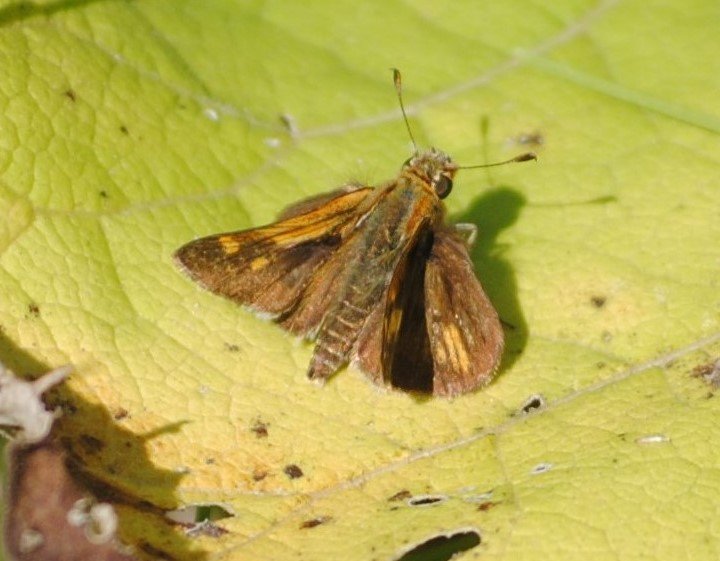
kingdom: Animalia
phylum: Arthropoda
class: Insecta
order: Lepidoptera
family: Hesperiidae
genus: Polites
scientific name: Polites coras
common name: Peck's Skipper
